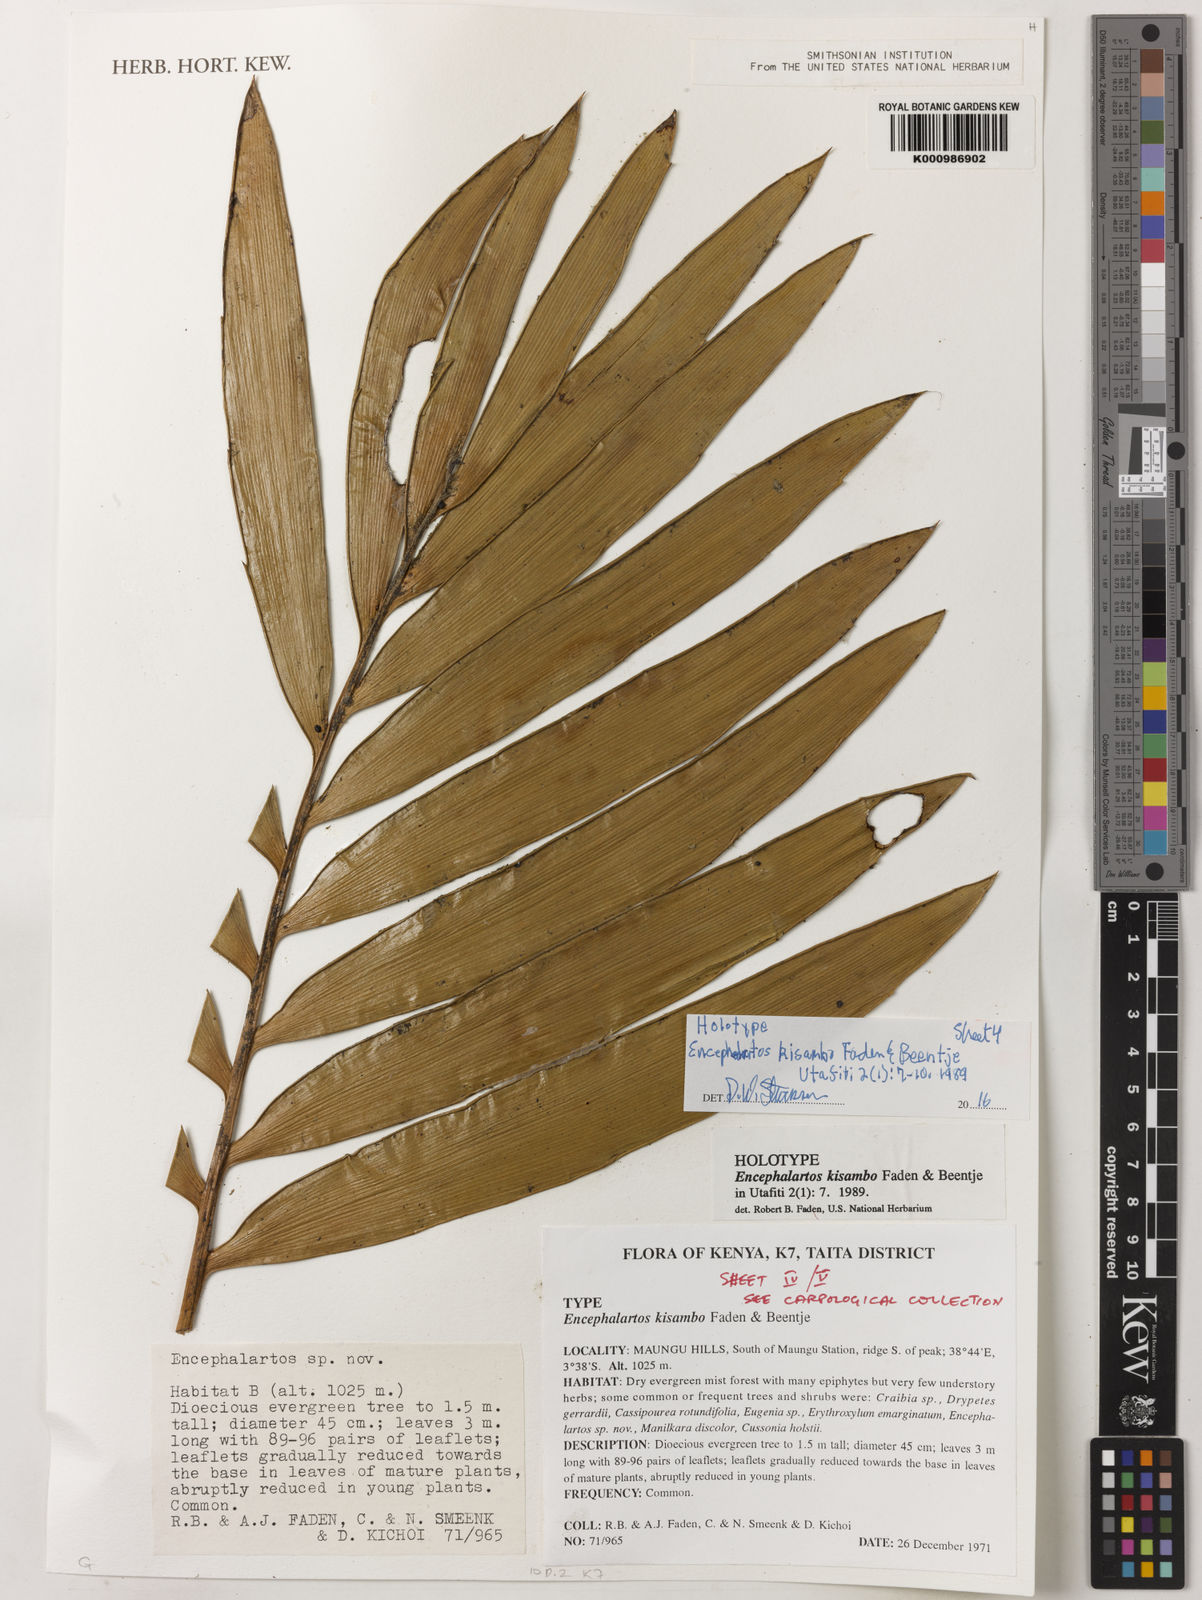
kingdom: Plantae
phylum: Tracheophyta
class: Cycadopsida
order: Cycadales
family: Zamiaceae
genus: Encephalartos
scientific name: Encephalartos kisambo
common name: Voi cycad
